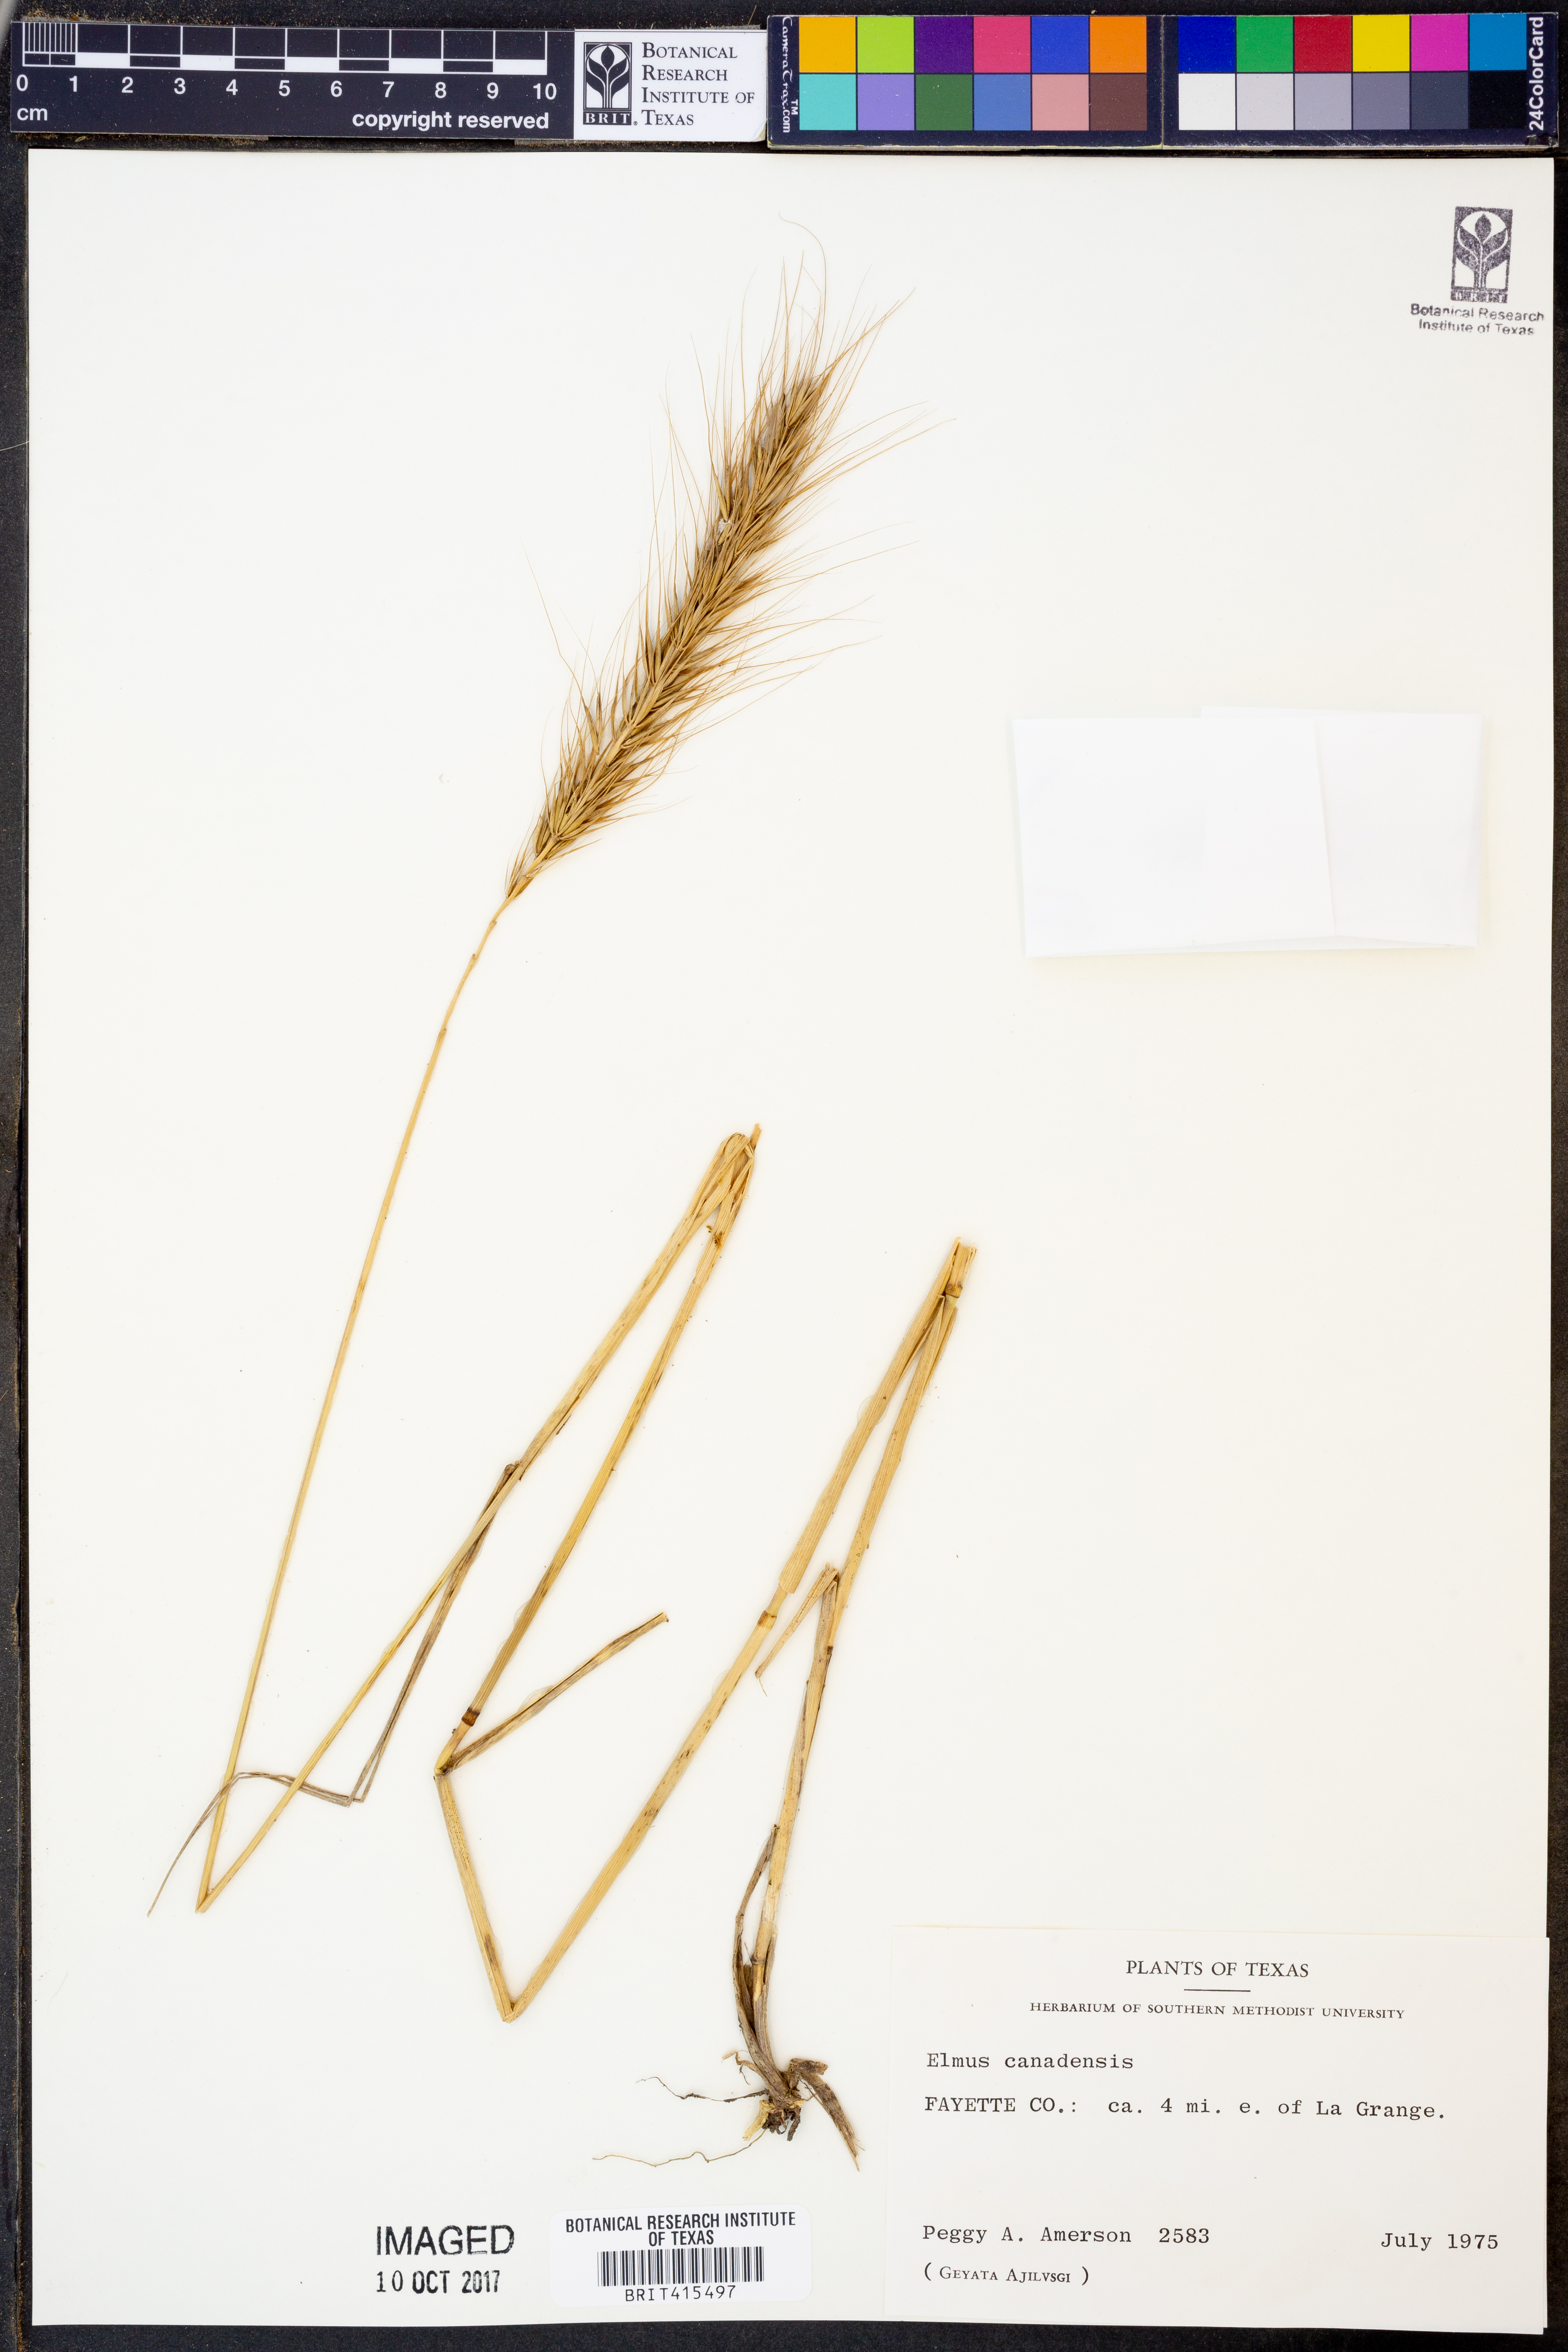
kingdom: Plantae
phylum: Tracheophyta
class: Liliopsida
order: Poales
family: Poaceae
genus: Elymus
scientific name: Elymus canadensis
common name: Canada wild rye
